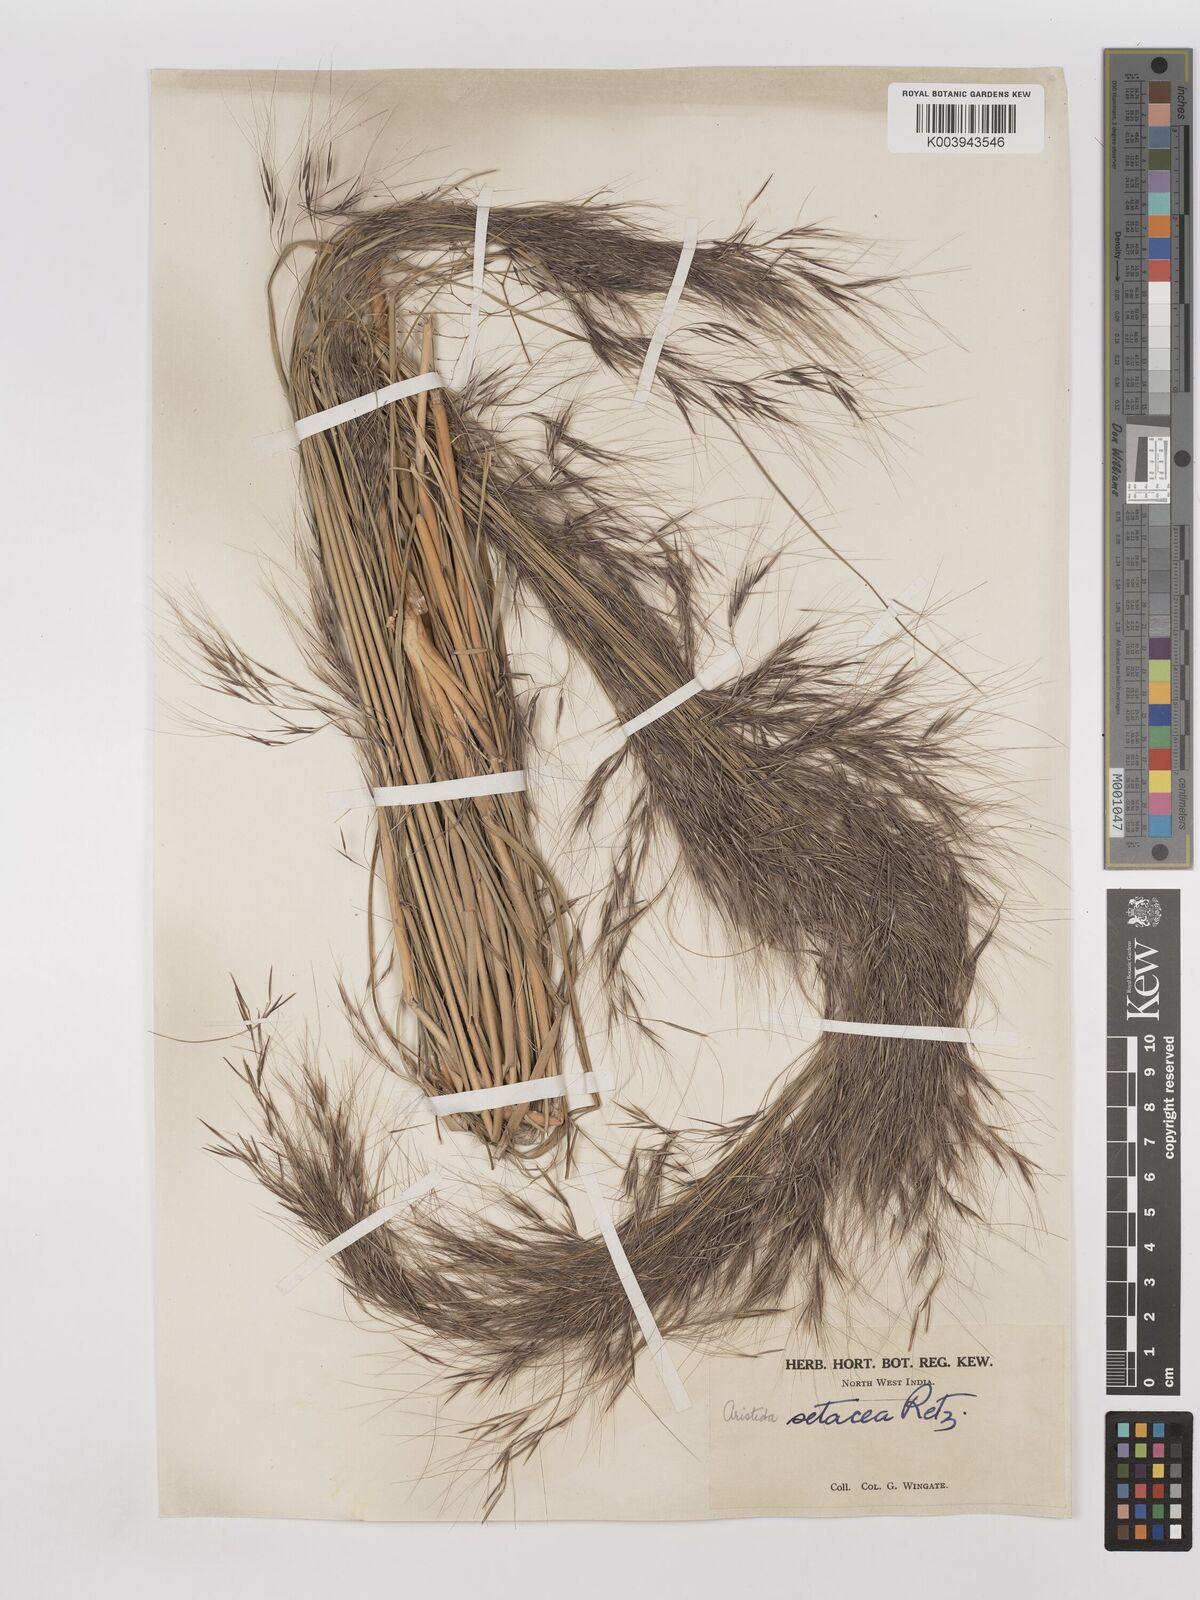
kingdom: Plantae
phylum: Tracheophyta
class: Liliopsida
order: Poales
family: Poaceae
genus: Aristida
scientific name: Aristida setacea
